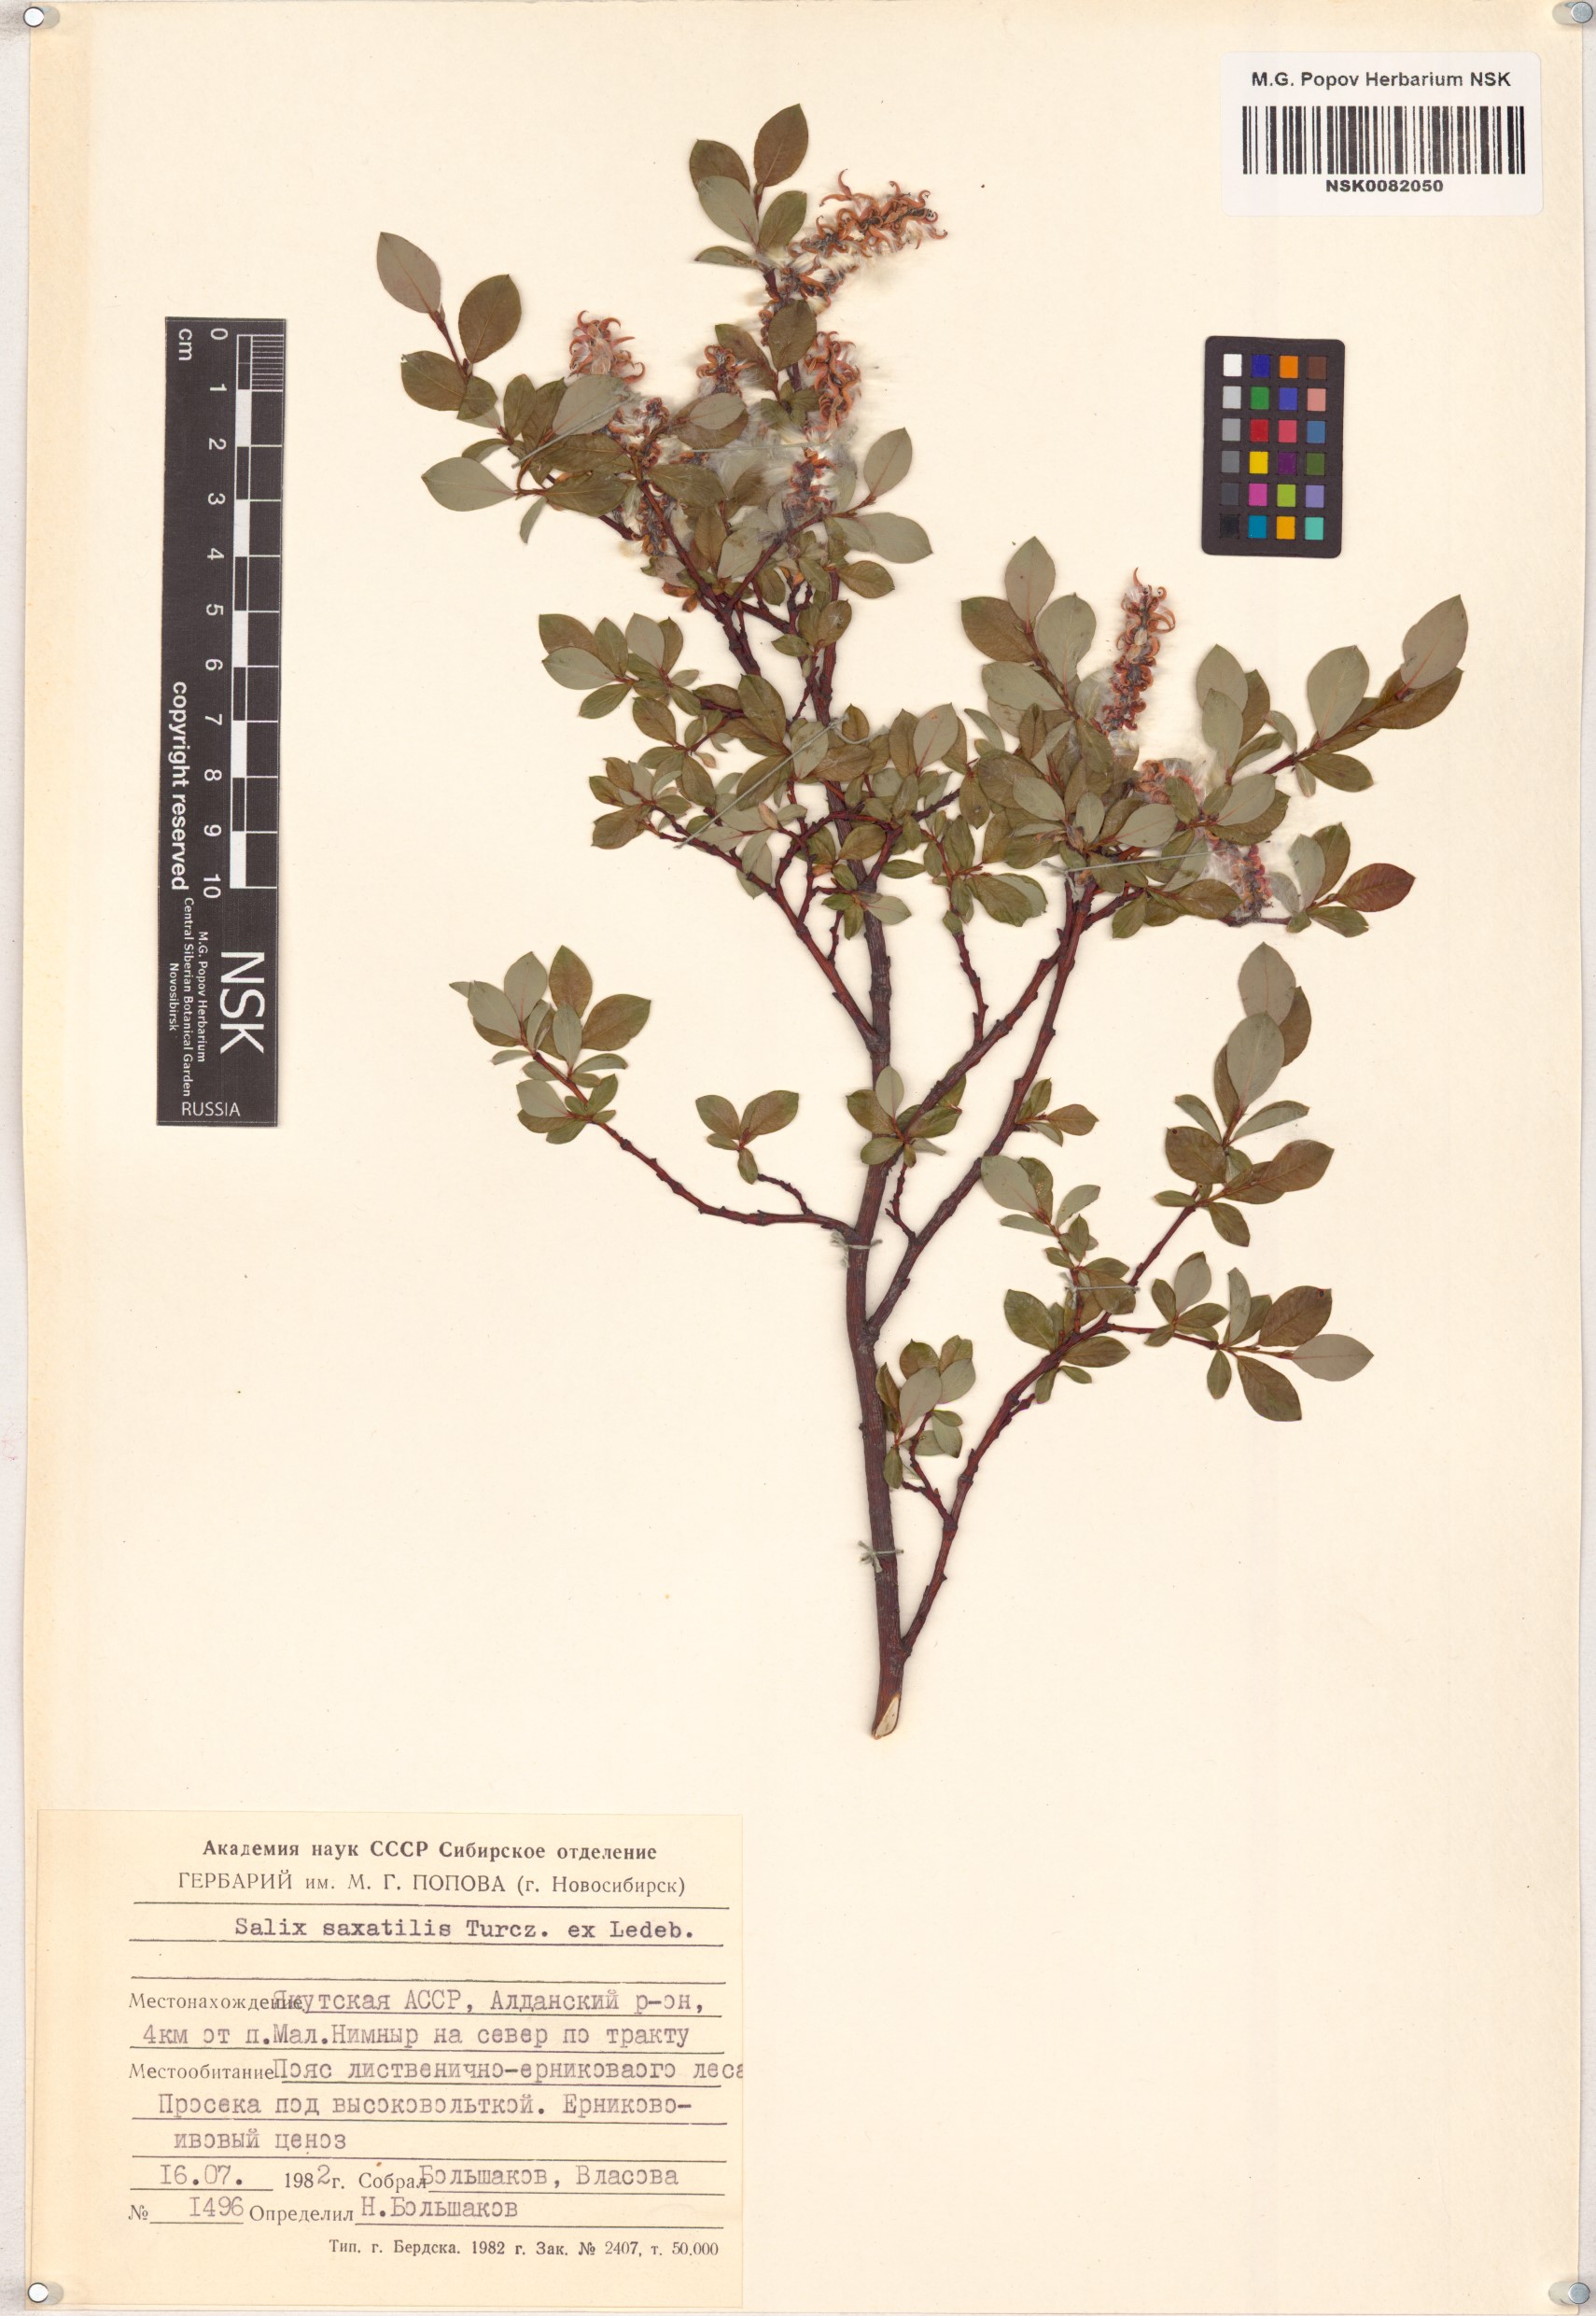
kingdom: Plantae
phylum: Tracheophyta
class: Magnoliopsida
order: Malpighiales
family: Salicaceae
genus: Salix
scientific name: Salix saxatilis
